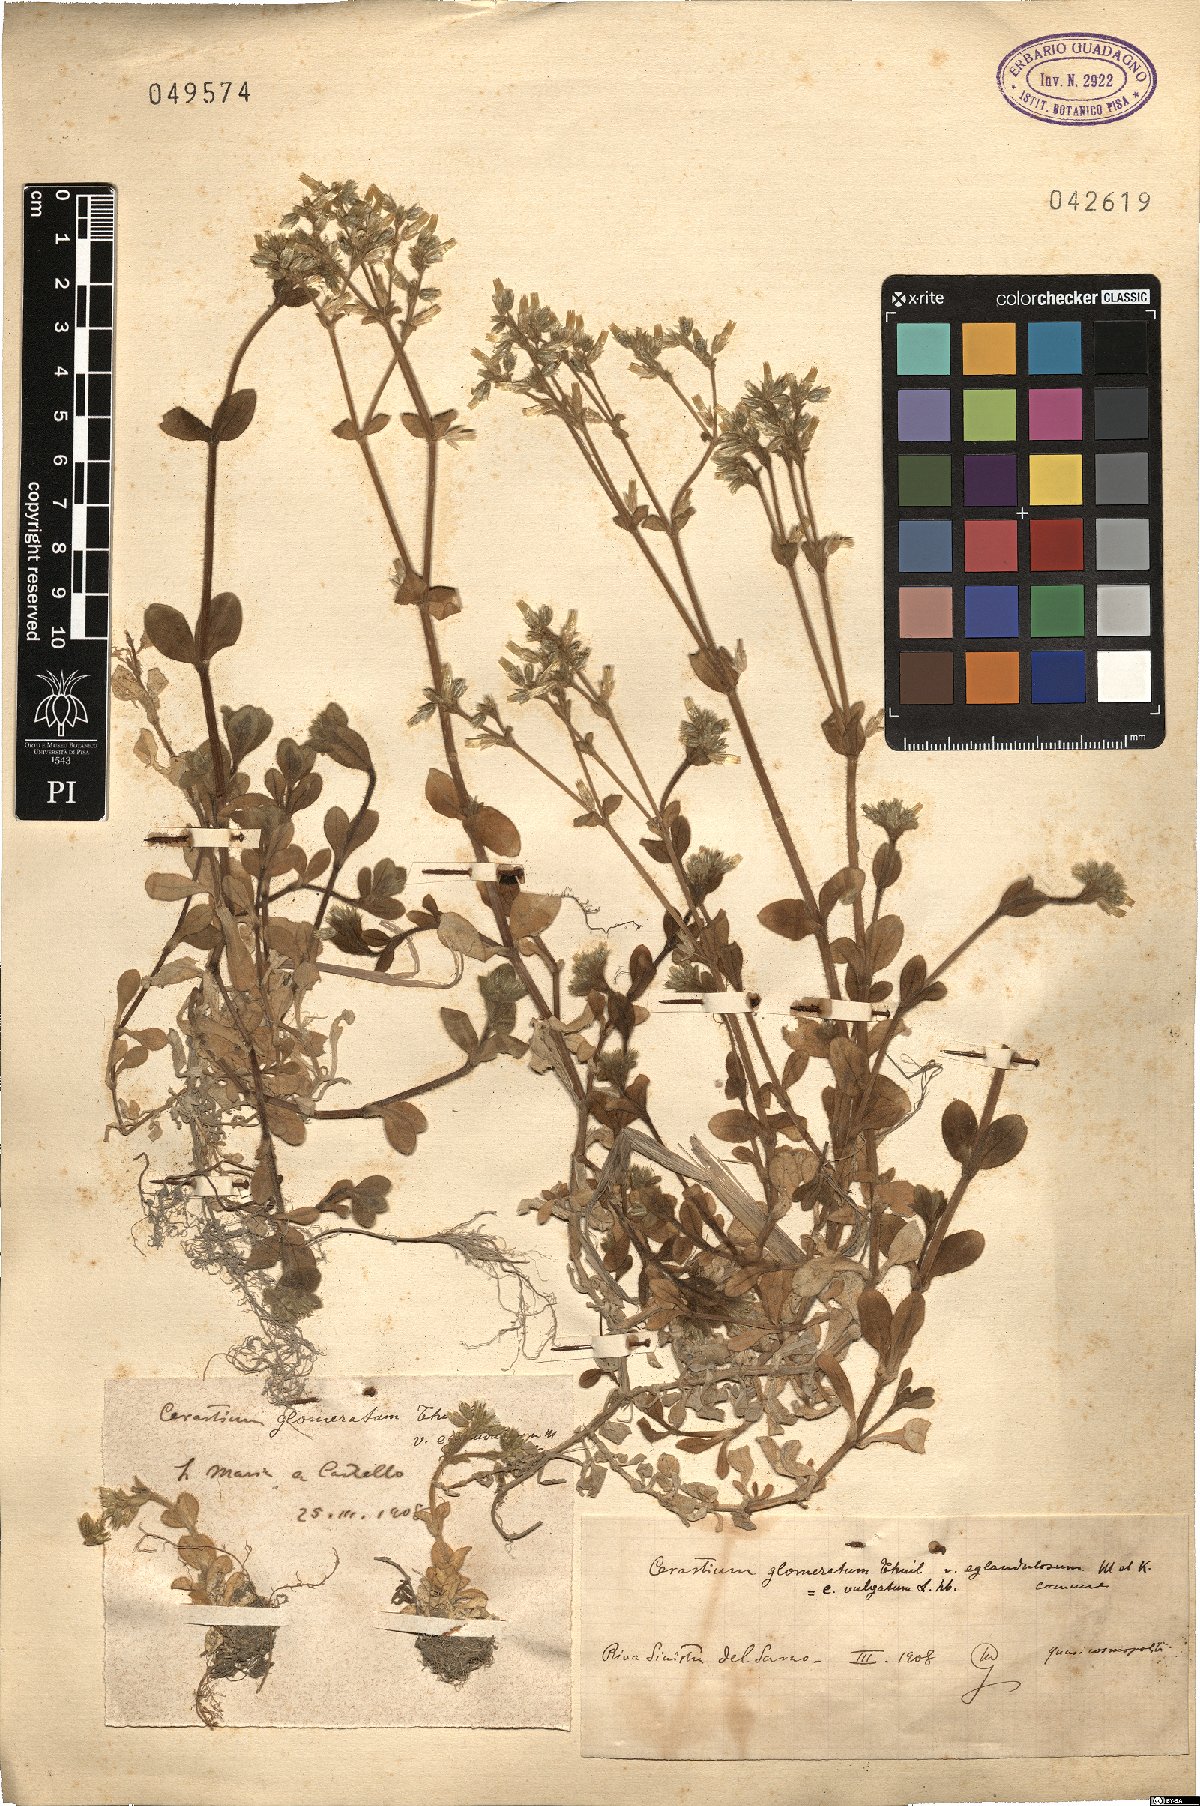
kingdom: Plantae
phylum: Tracheophyta
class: Magnoliopsida
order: Caryophyllales
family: Caryophyllaceae
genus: Cerastium
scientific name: Cerastium glomeratum
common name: Sticky chickweed
